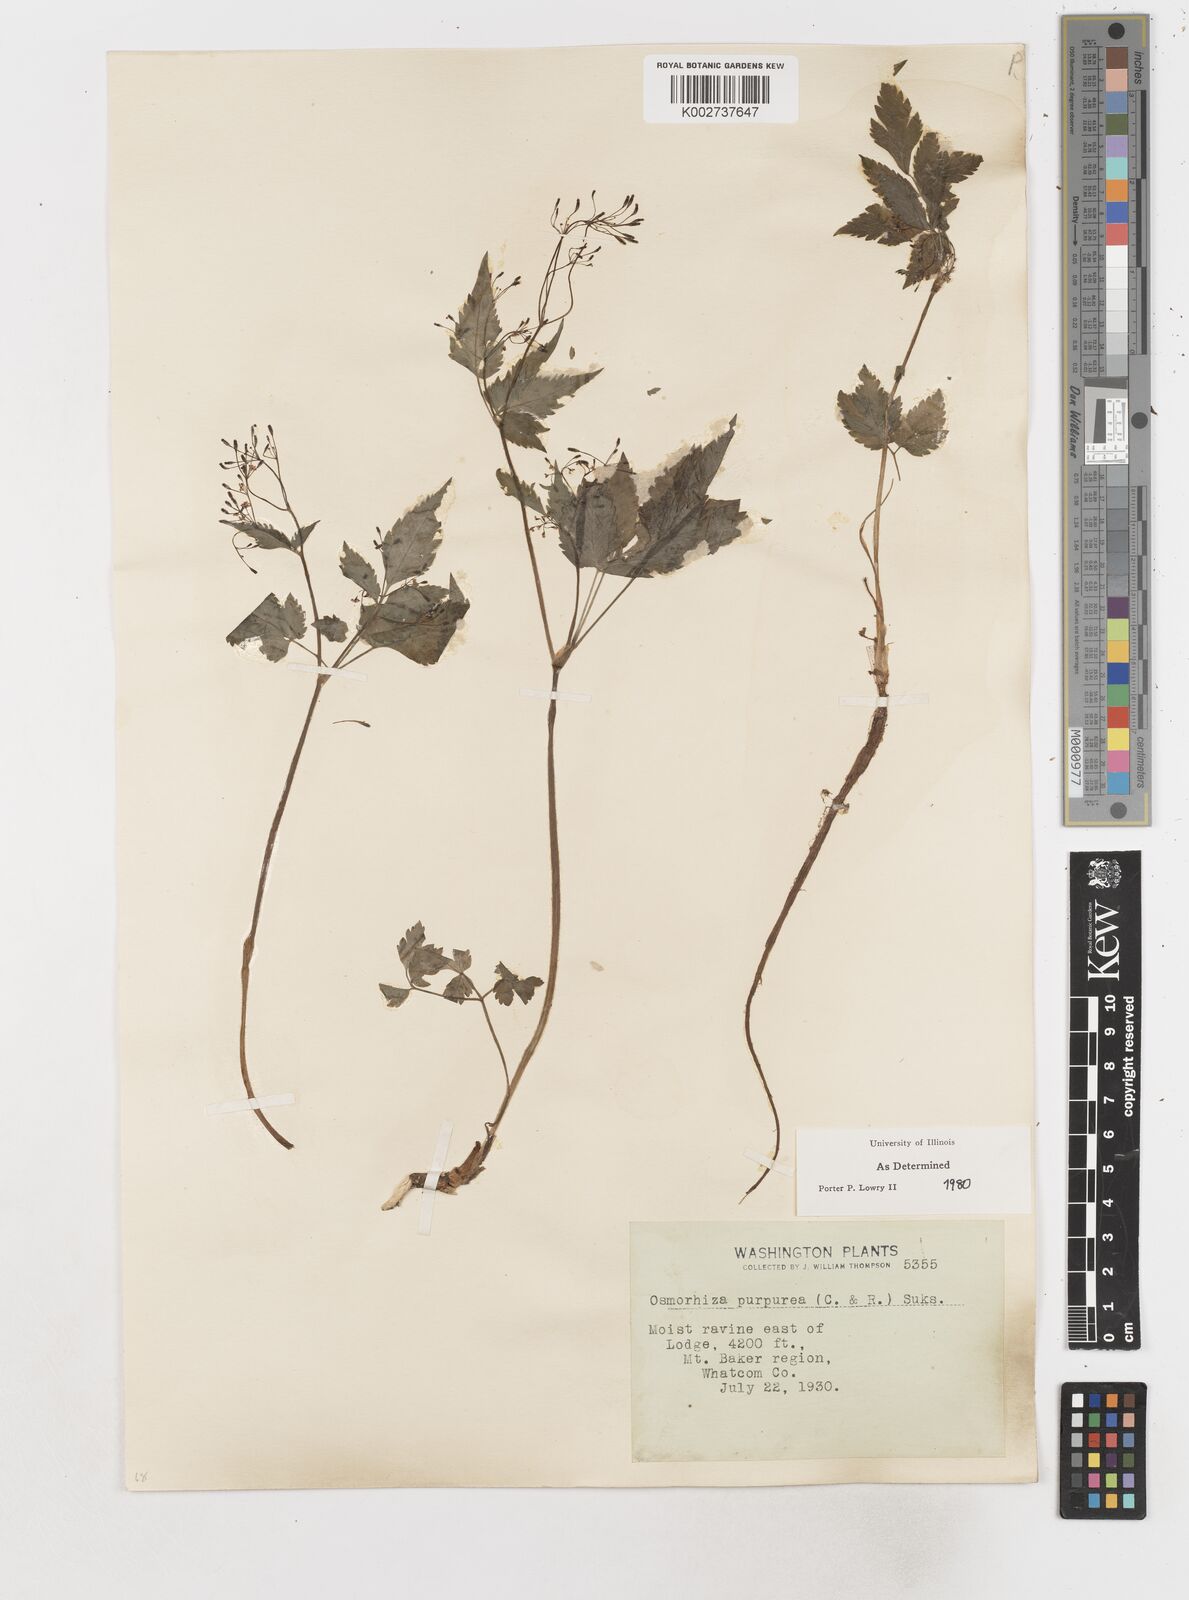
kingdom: Plantae
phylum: Tracheophyta
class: Magnoliopsida
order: Apiales
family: Apiaceae
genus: Osmorhiza
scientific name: Osmorhiza purpurea
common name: Purple sweet cicely
